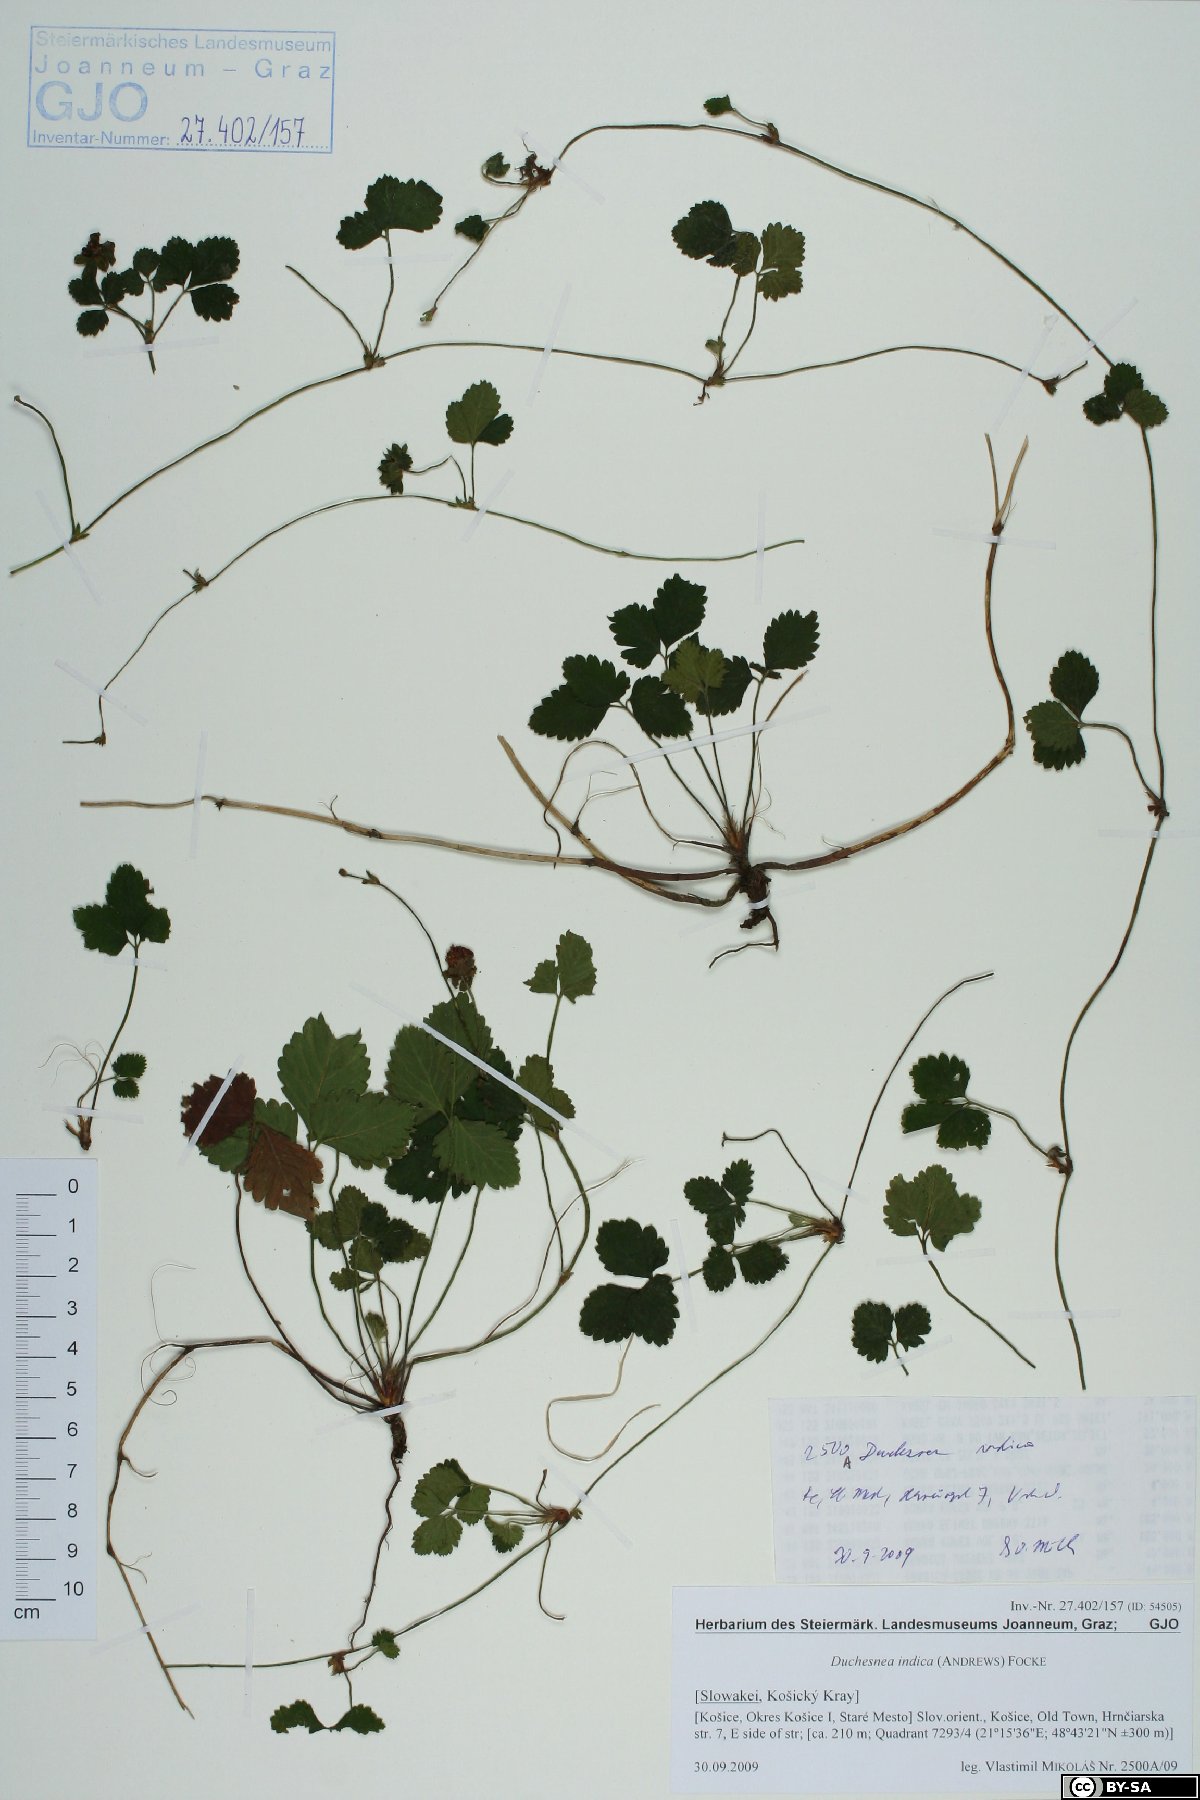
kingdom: Plantae
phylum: Tracheophyta
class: Magnoliopsida
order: Rosales
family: Rosaceae
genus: Potentilla
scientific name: Potentilla indica
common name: Yellow-flowered strawberry
